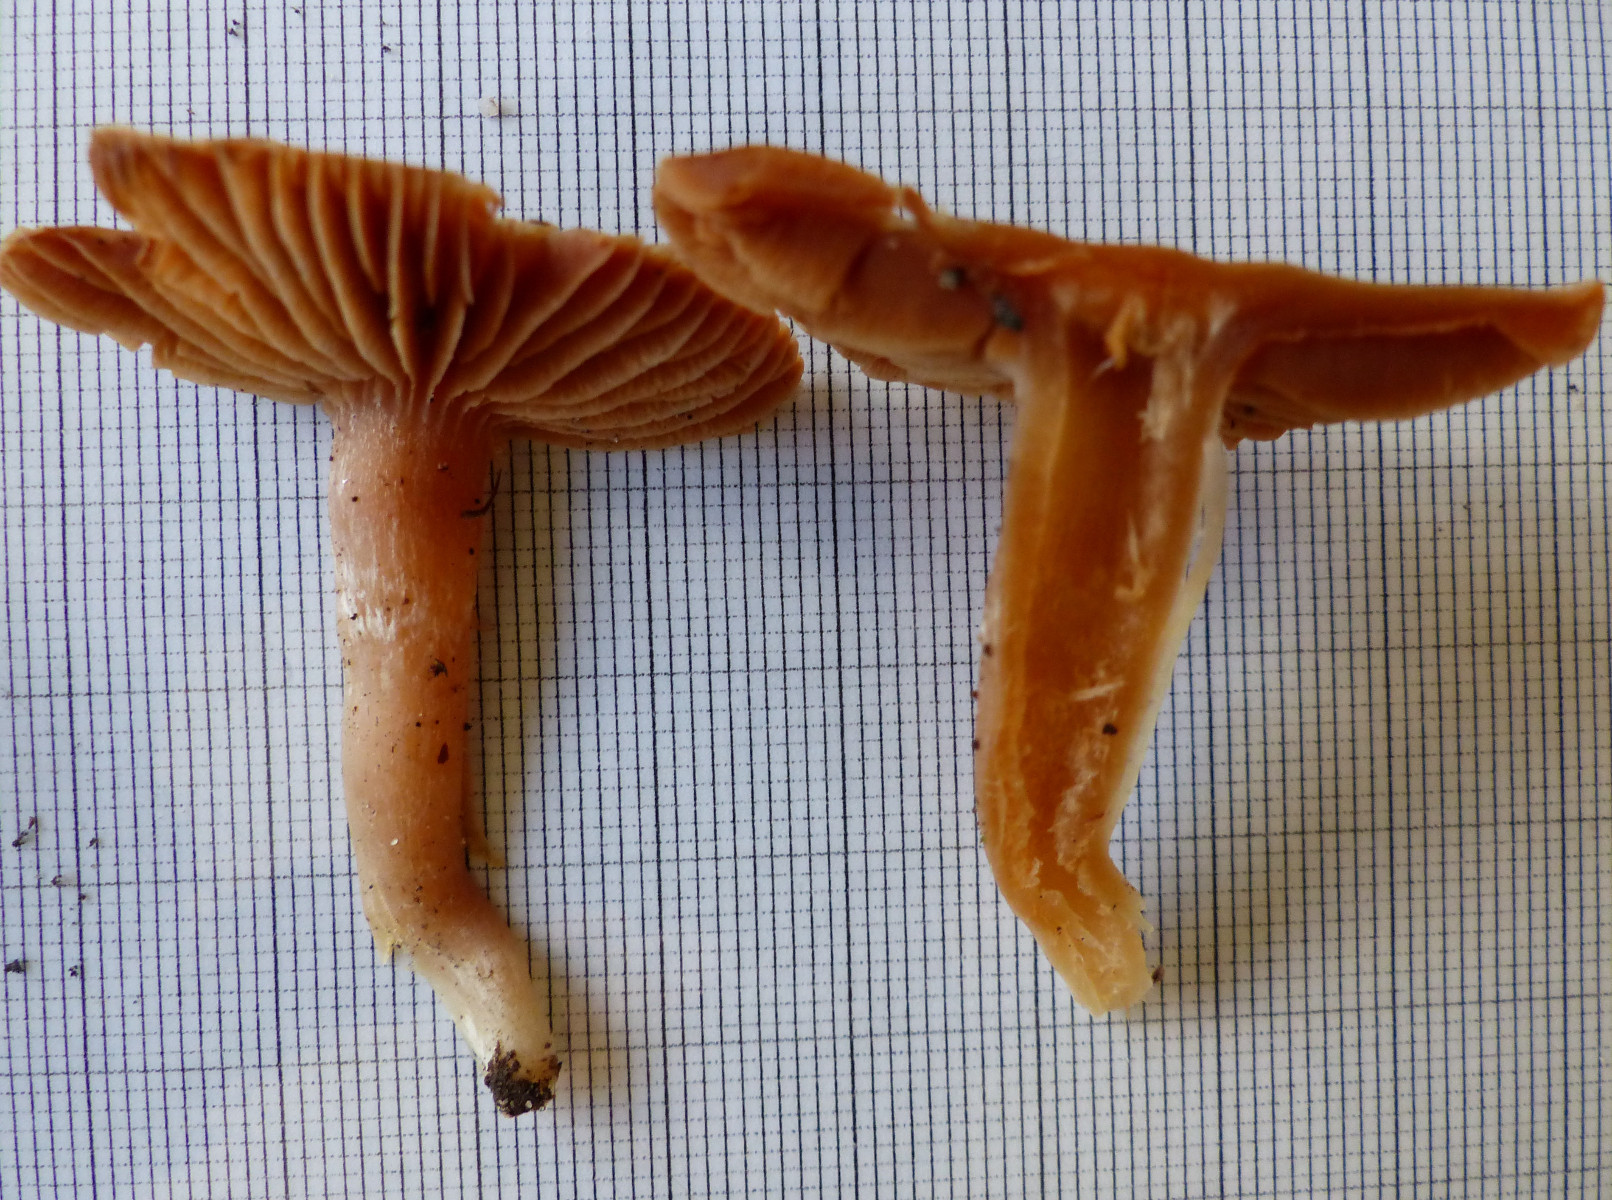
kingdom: Fungi
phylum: Basidiomycota
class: Agaricomycetes
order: Agaricales
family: Cortinariaceae
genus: Cortinarius
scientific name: Cortinarius
